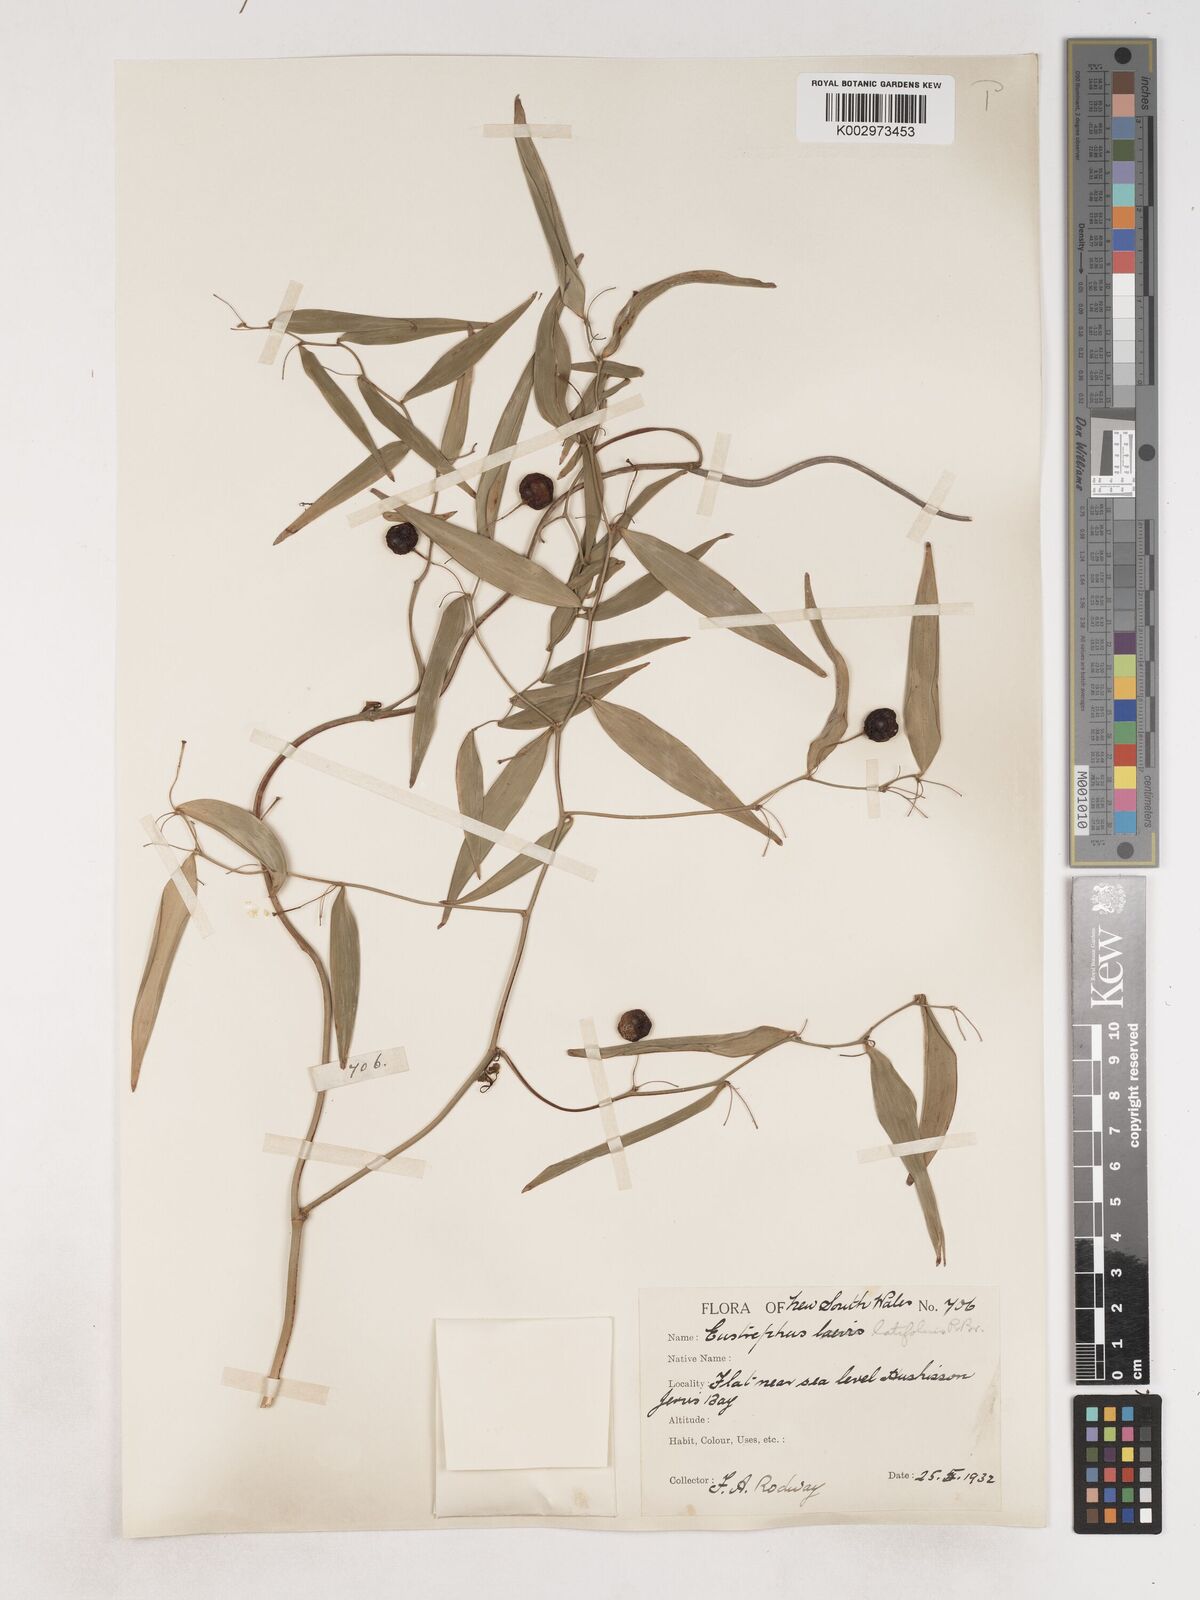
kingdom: Plantae
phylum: Tracheophyta
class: Liliopsida
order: Asparagales
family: Asparagaceae
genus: Eustrephus
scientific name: Eustrephus latifolius
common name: Orangevine
